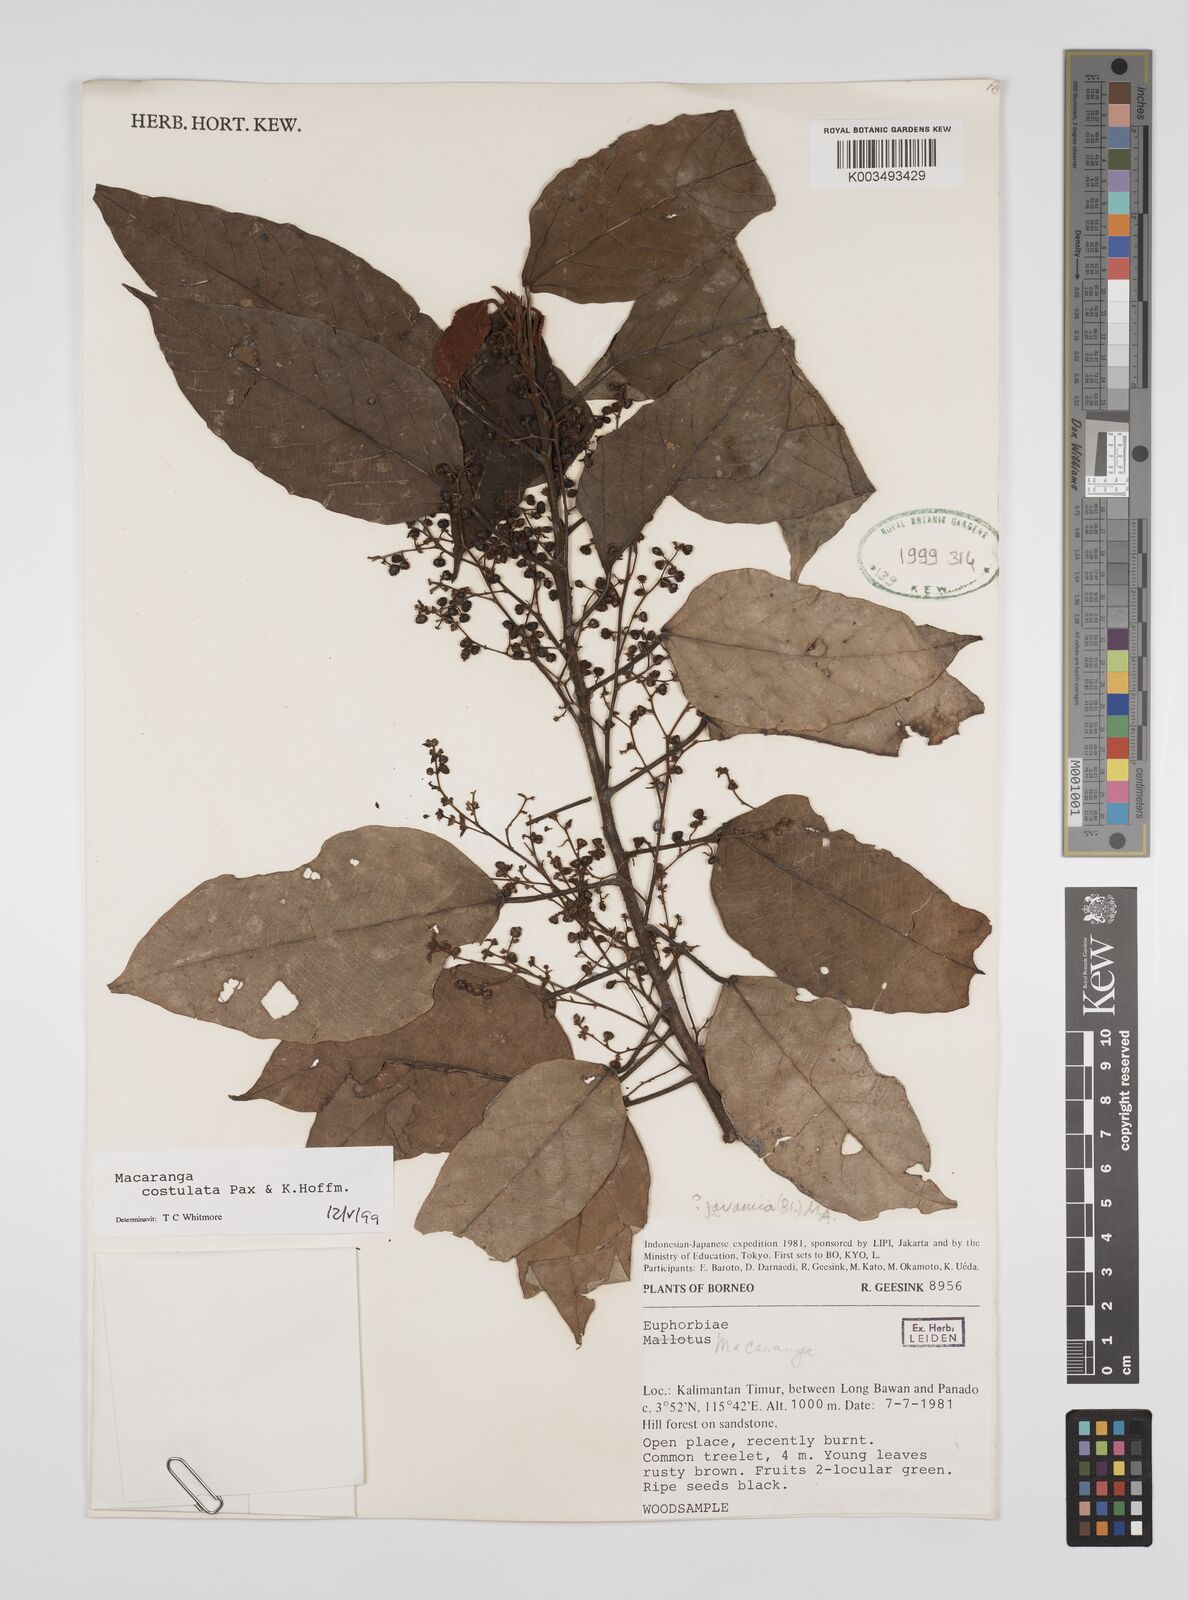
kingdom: Plantae
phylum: Tracheophyta
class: Magnoliopsida
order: Malpighiales
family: Euphorbiaceae
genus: Macaranga
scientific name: Macaranga costulata
